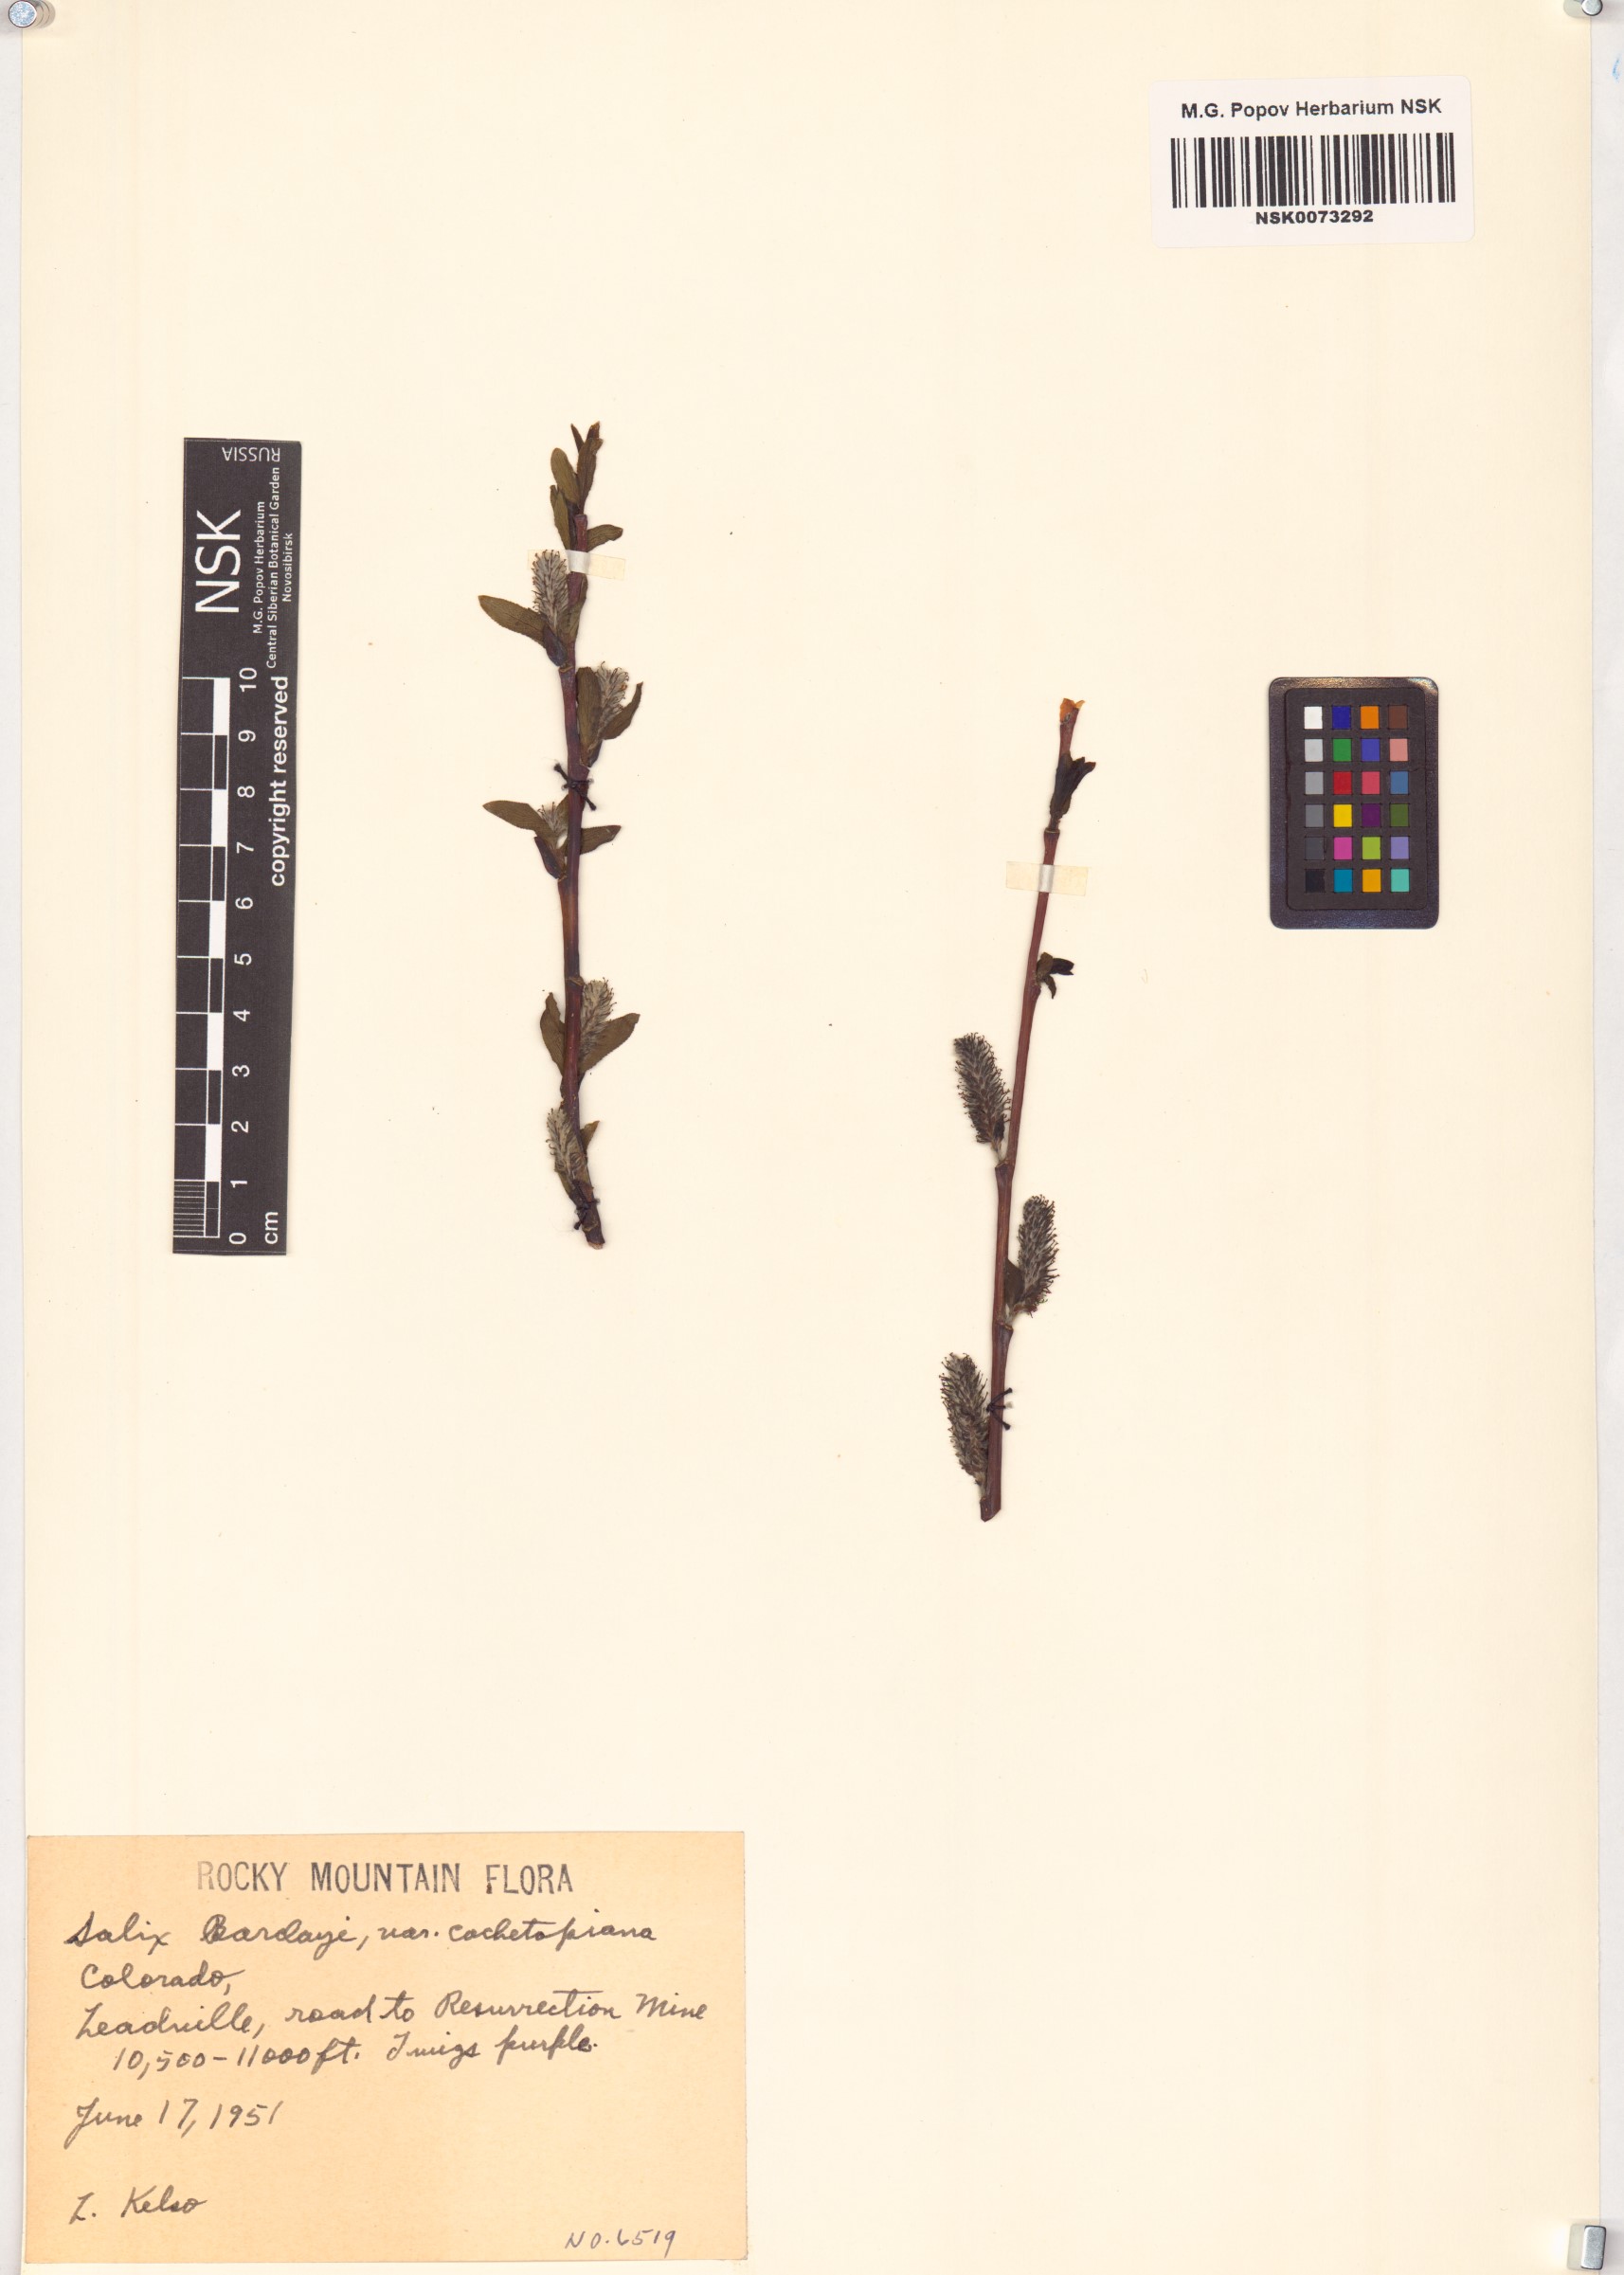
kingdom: Plantae
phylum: Tracheophyta
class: Magnoliopsida
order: Malpighiales
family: Salicaceae
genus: Salix
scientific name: Salix monticola
